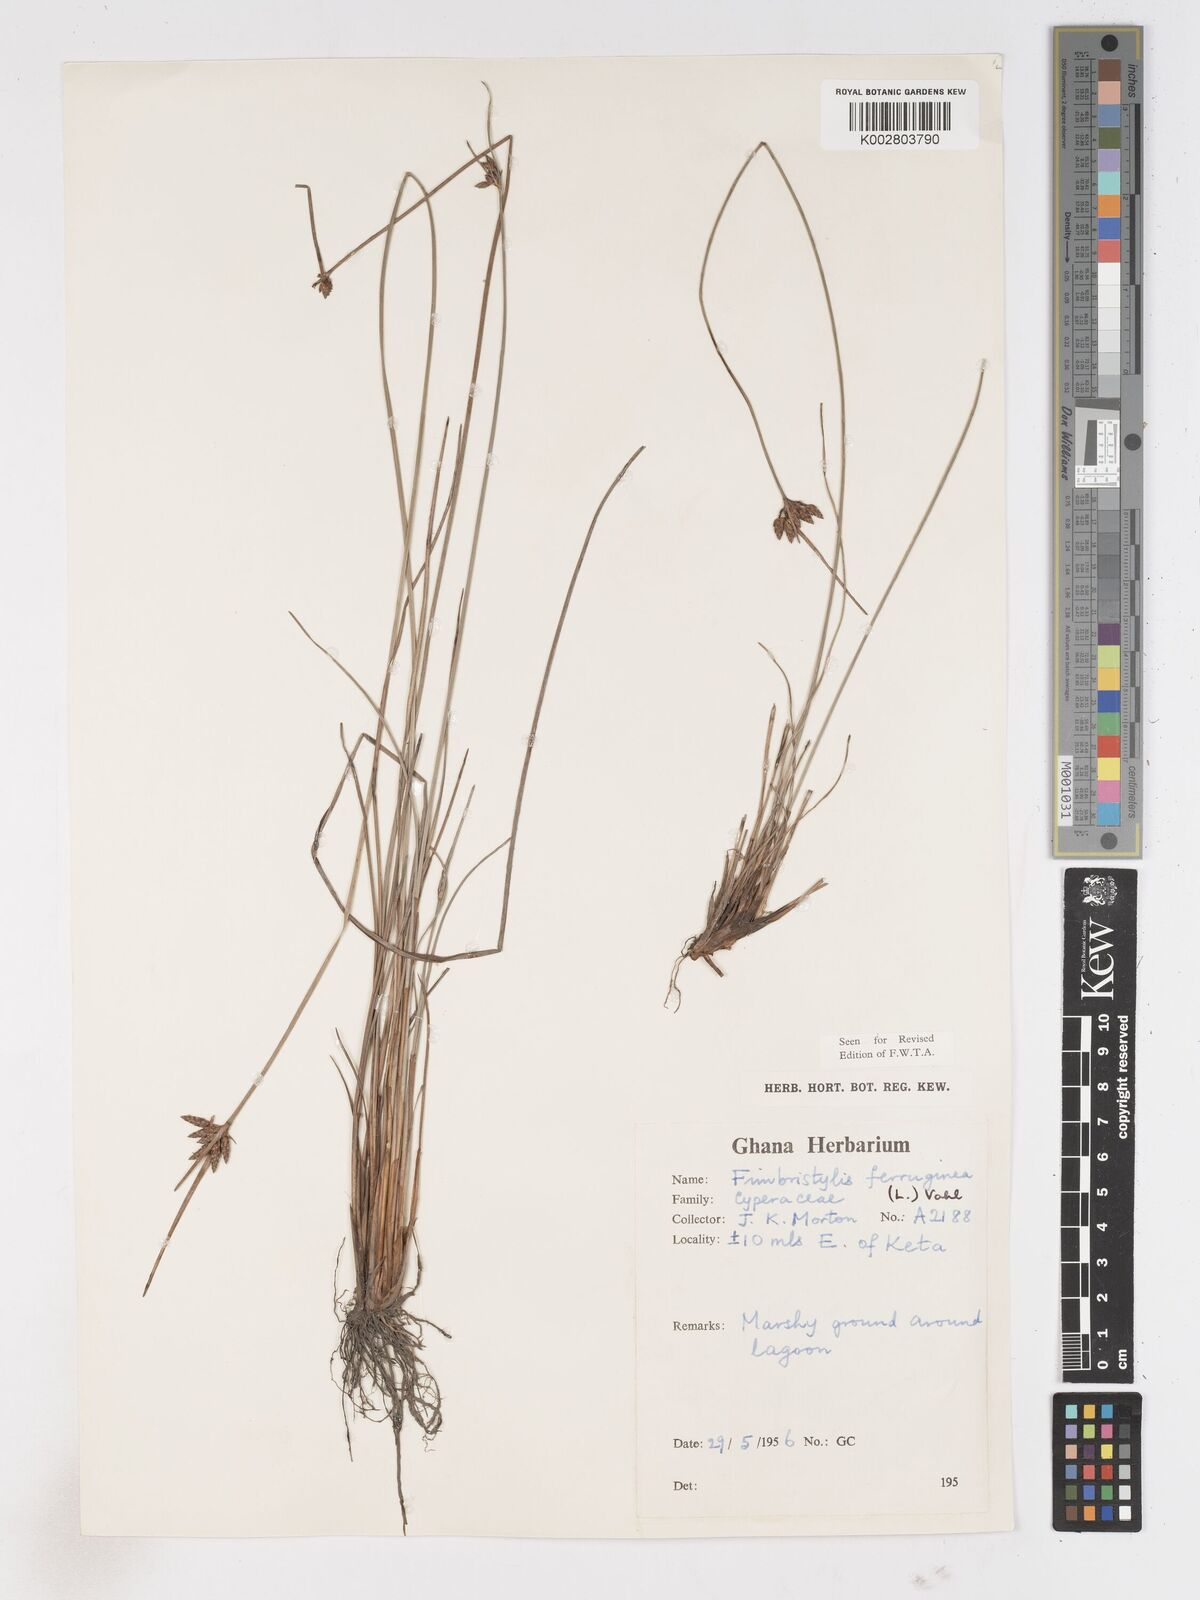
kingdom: Plantae
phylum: Tracheophyta
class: Liliopsida
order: Poales
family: Cyperaceae
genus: Fimbristylis
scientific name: Fimbristylis ferruginea
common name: West indian fimbry
